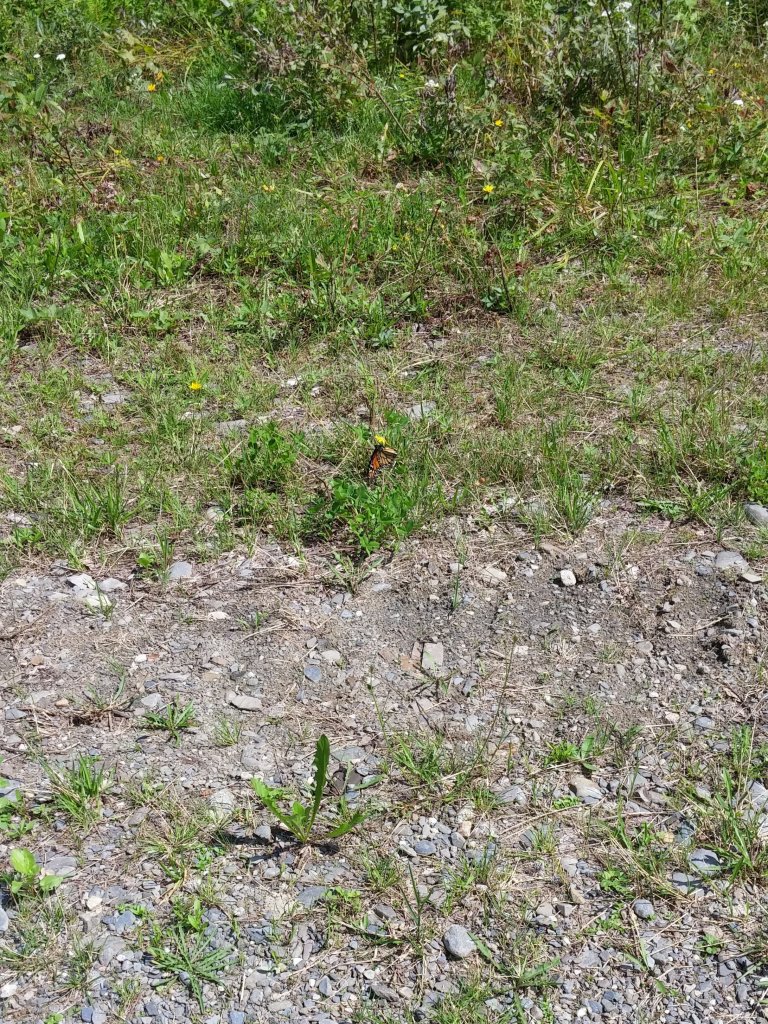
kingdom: Animalia
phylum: Arthropoda
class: Insecta
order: Lepidoptera
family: Nymphalidae
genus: Danaus
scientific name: Danaus plexippus
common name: Monarch
